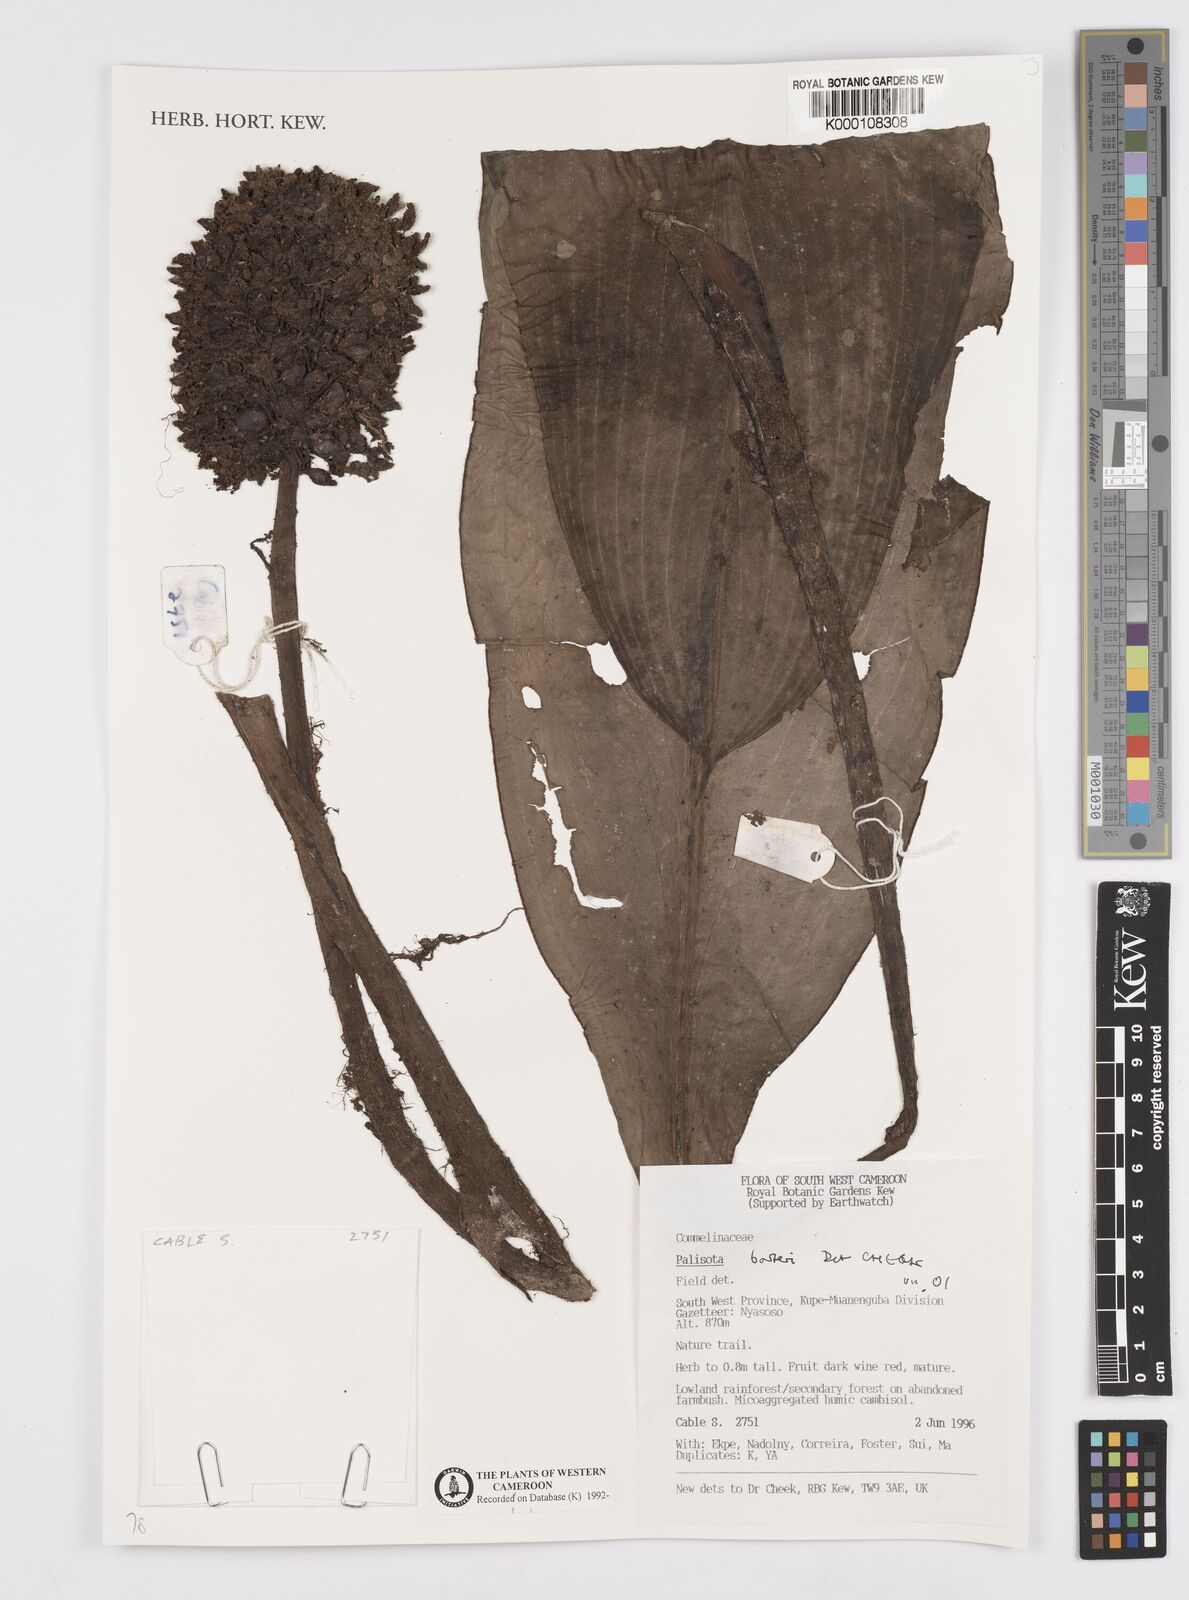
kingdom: Plantae
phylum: Tracheophyta
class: Liliopsida
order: Commelinales
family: Commelinaceae
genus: Palisota
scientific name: Palisota barteri
